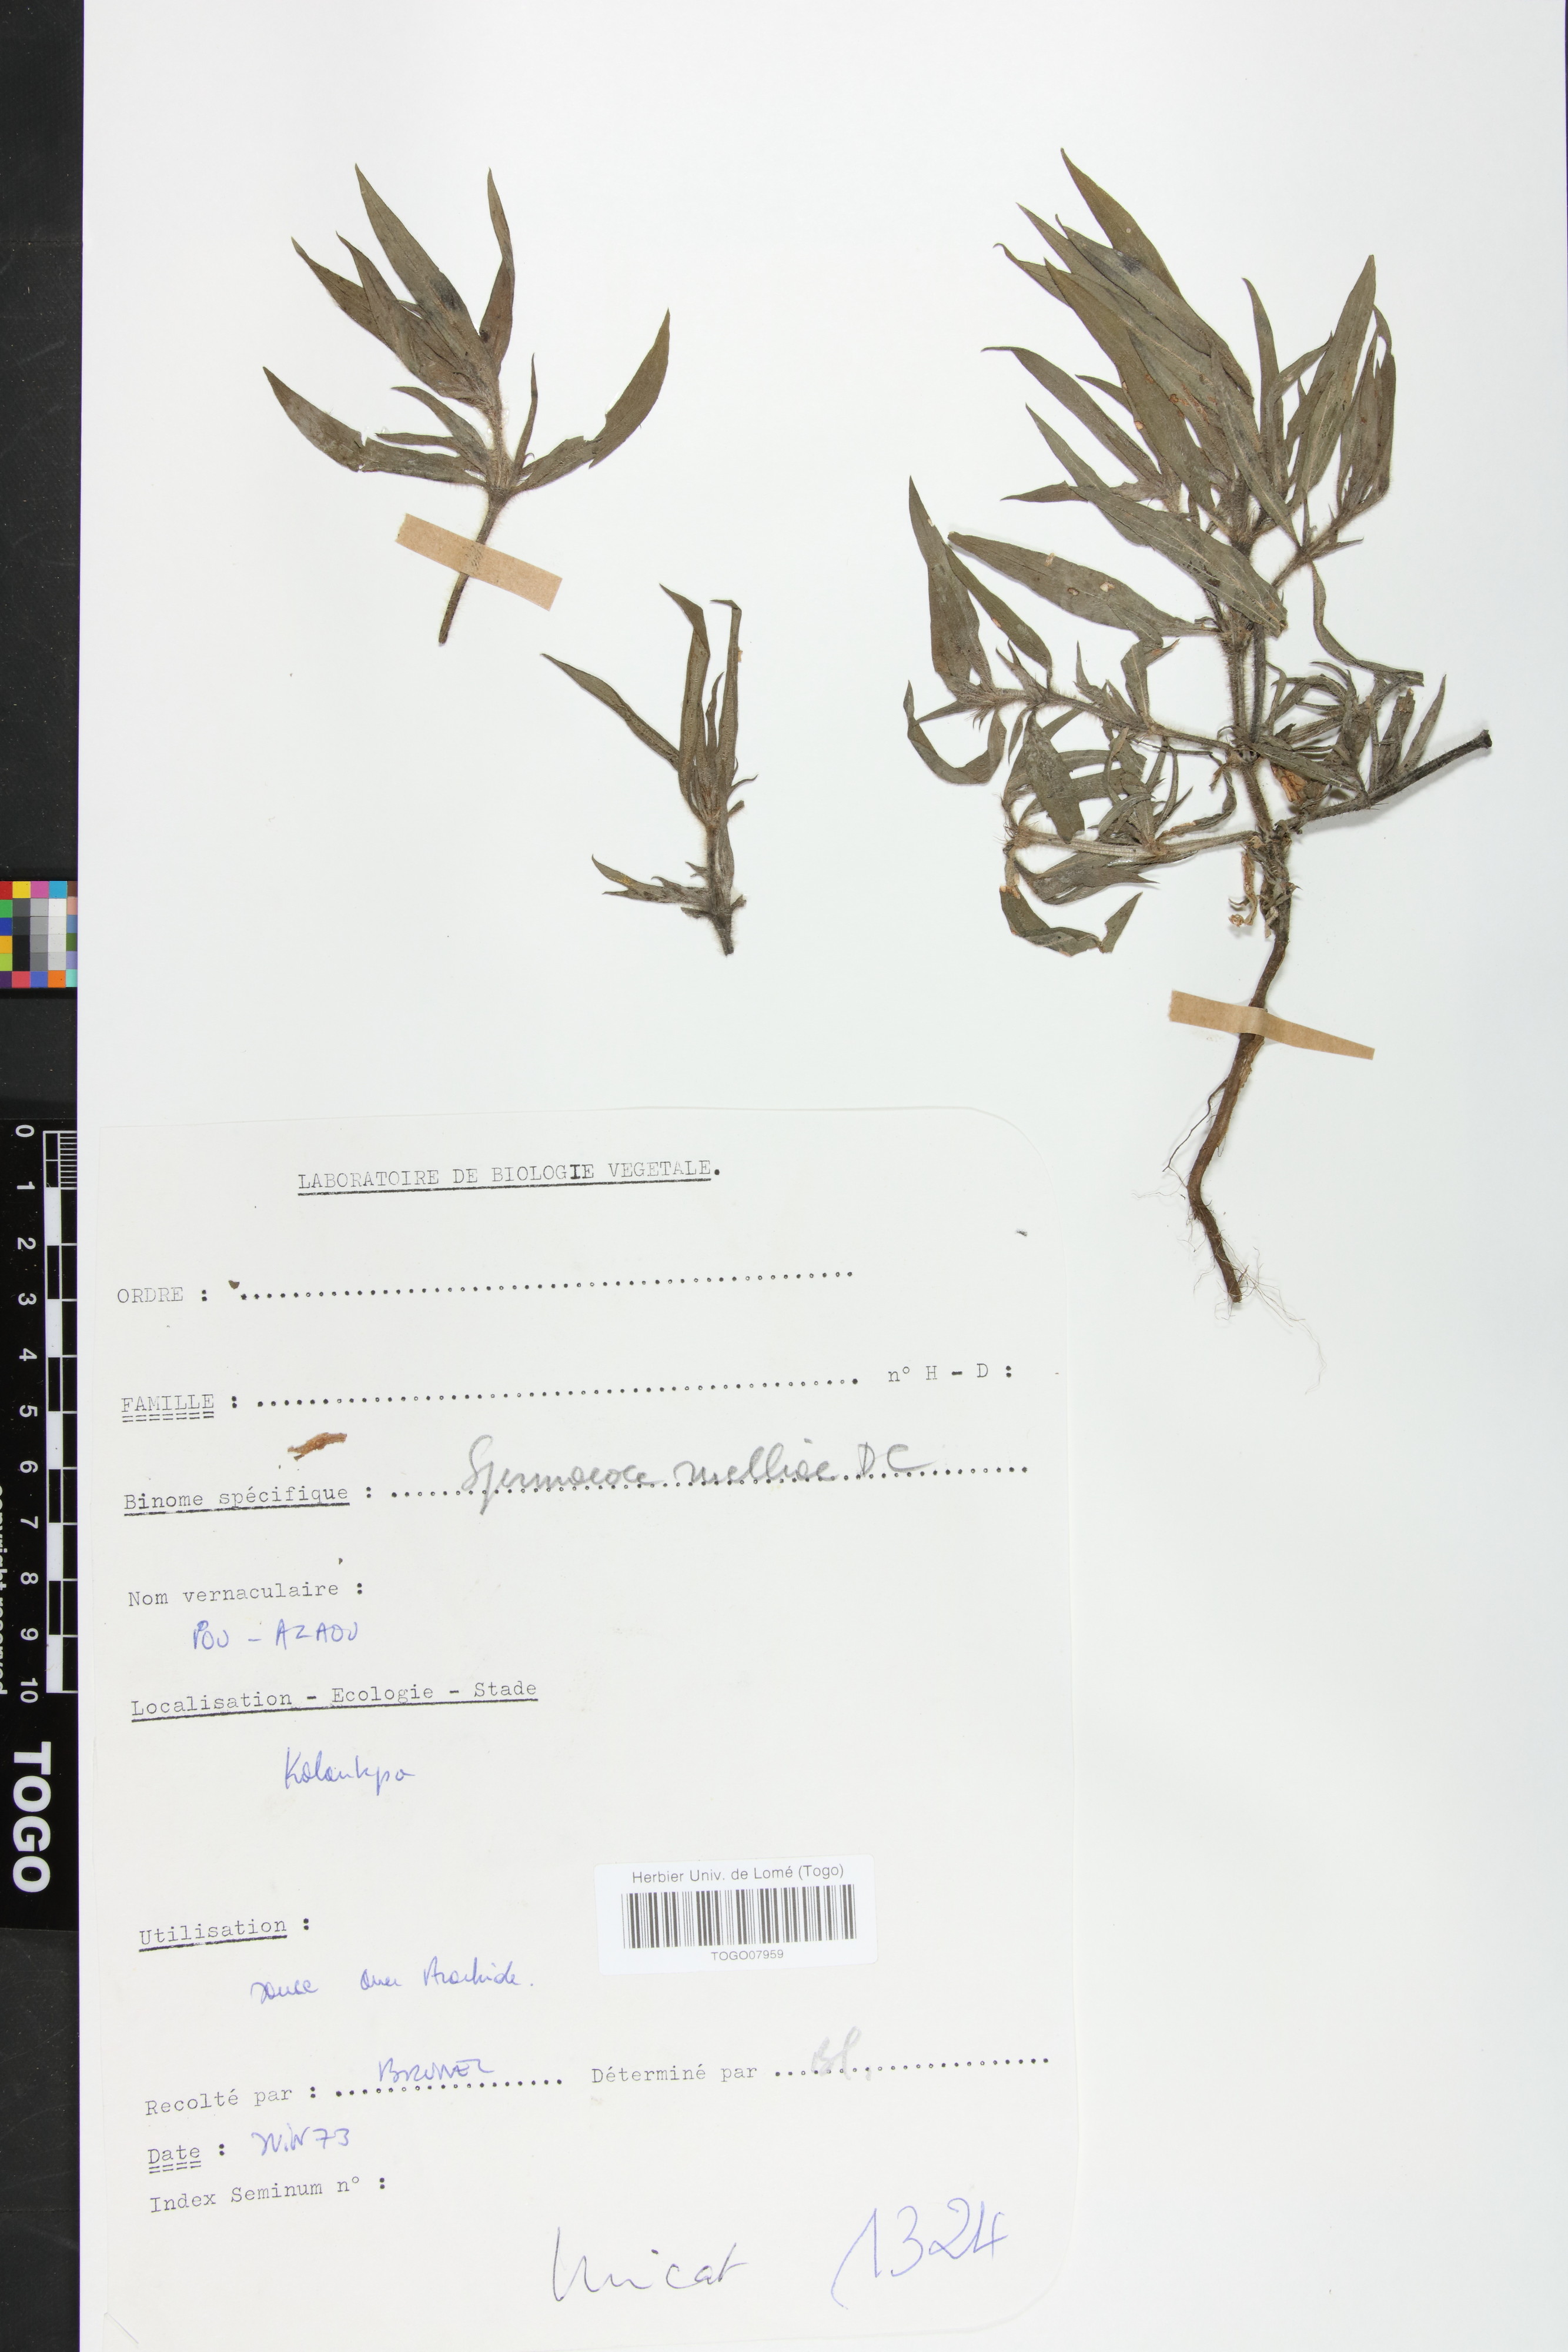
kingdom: Plantae
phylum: Tracheophyta
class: Magnoliopsida
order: Gentianales
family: Rubiaceae
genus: Spermacoce
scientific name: Spermacoce ruelliae
